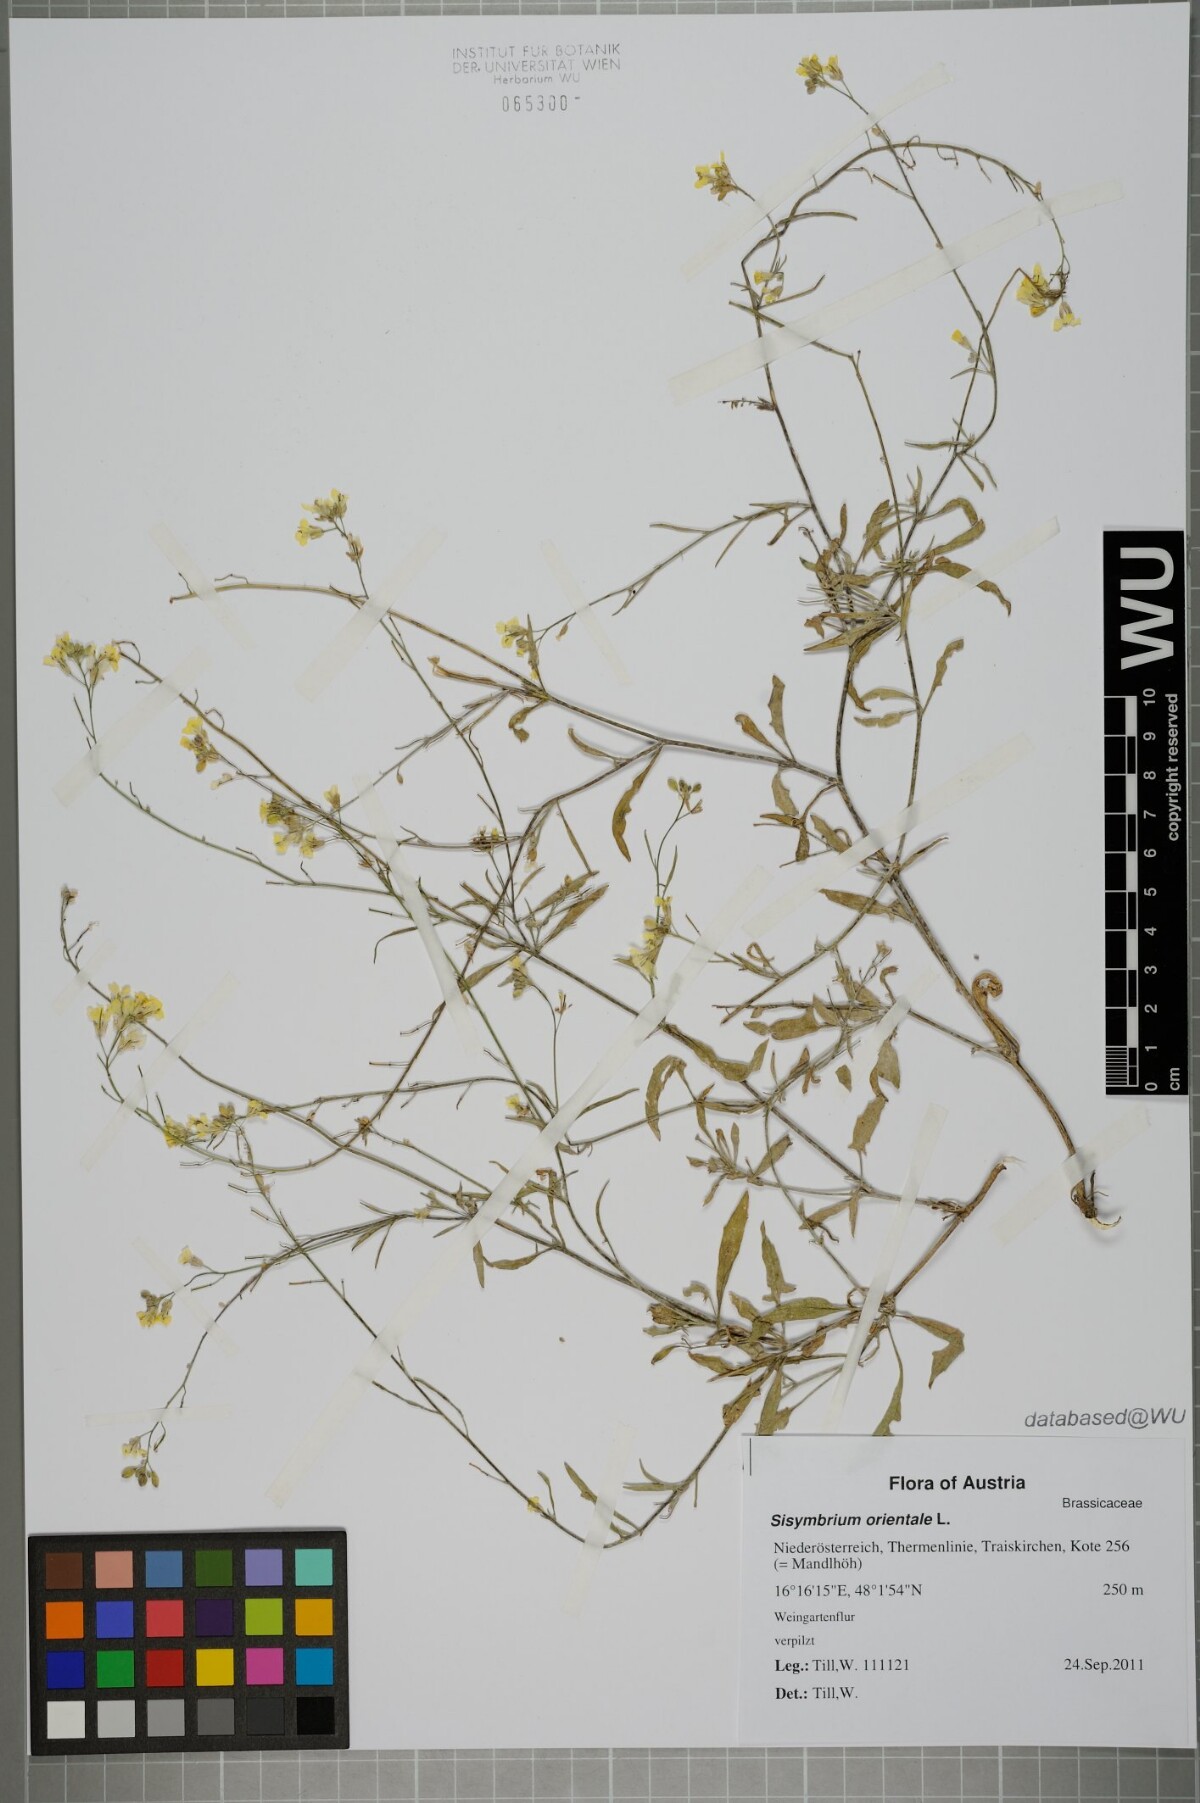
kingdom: Plantae
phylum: Tracheophyta
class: Magnoliopsida
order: Brassicales
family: Brassicaceae
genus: Sisymbrium
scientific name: Sisymbrium orientale
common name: Eastern rocket
